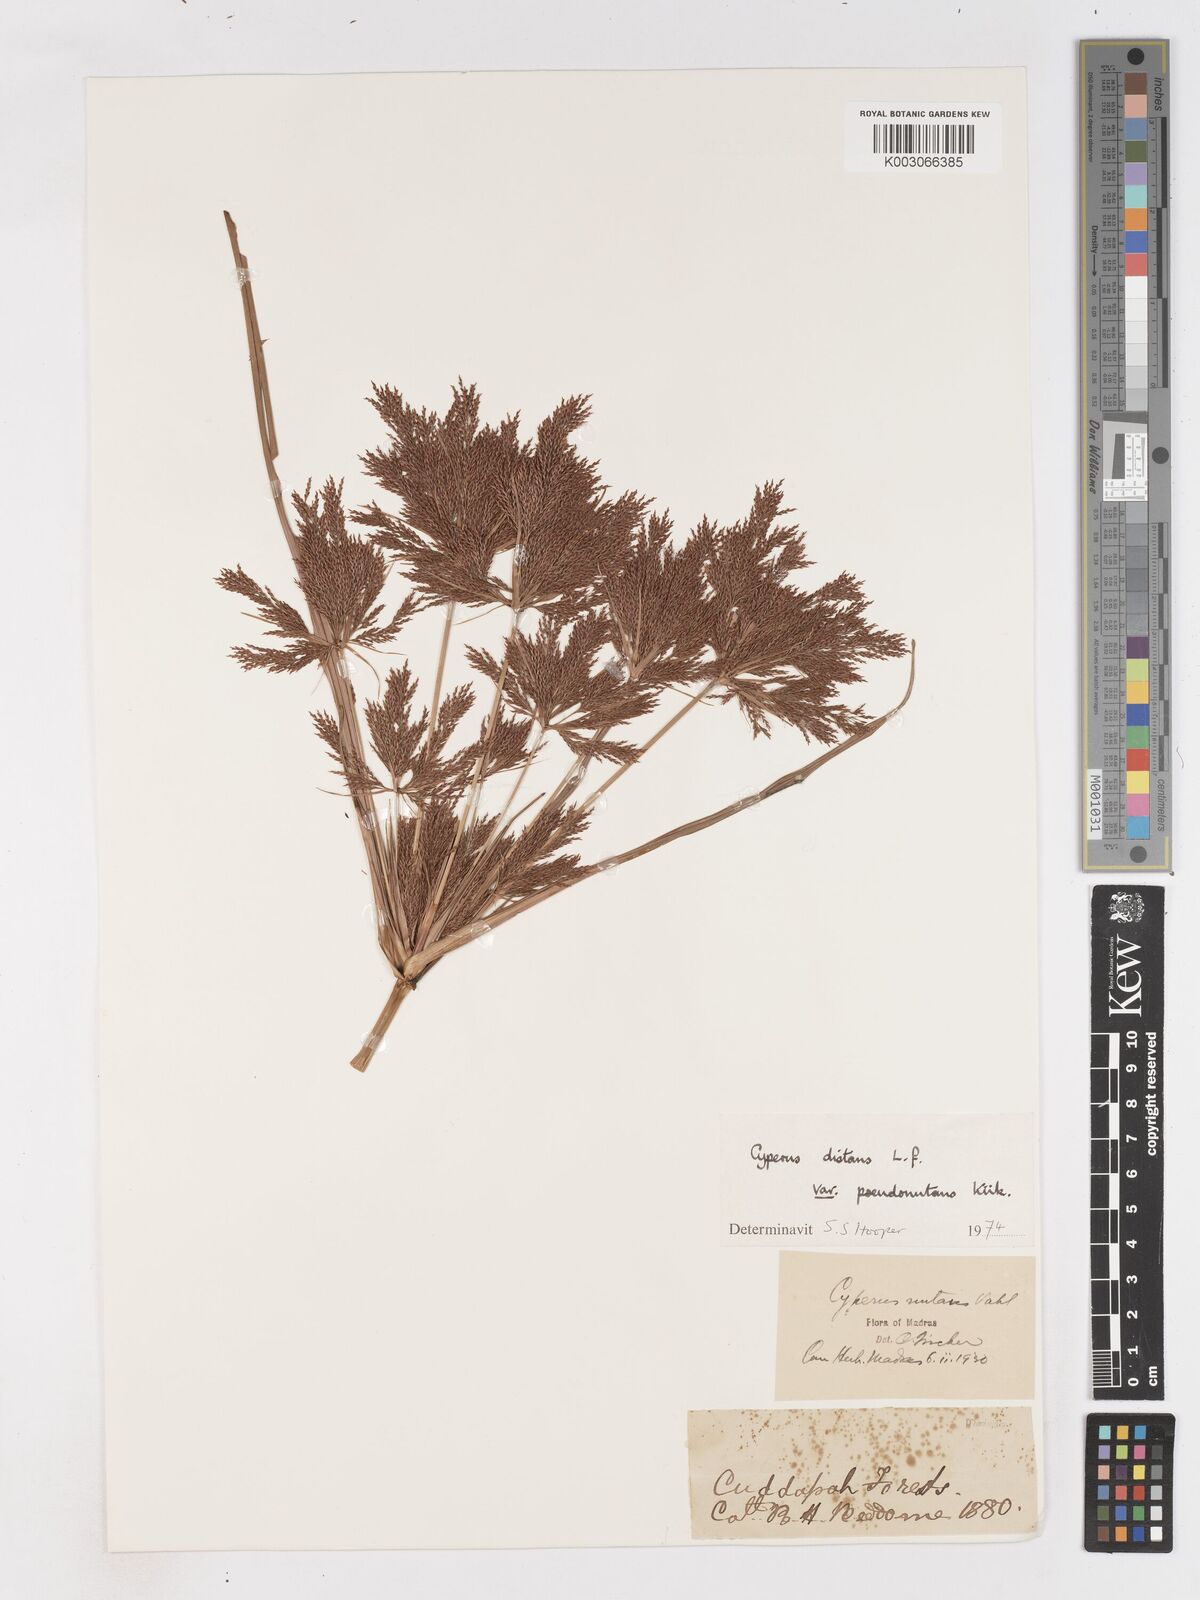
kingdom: Plantae
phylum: Tracheophyta
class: Liliopsida
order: Poales
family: Cyperaceae
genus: Cyperus
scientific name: Cyperus distans
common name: Slender cyperus
